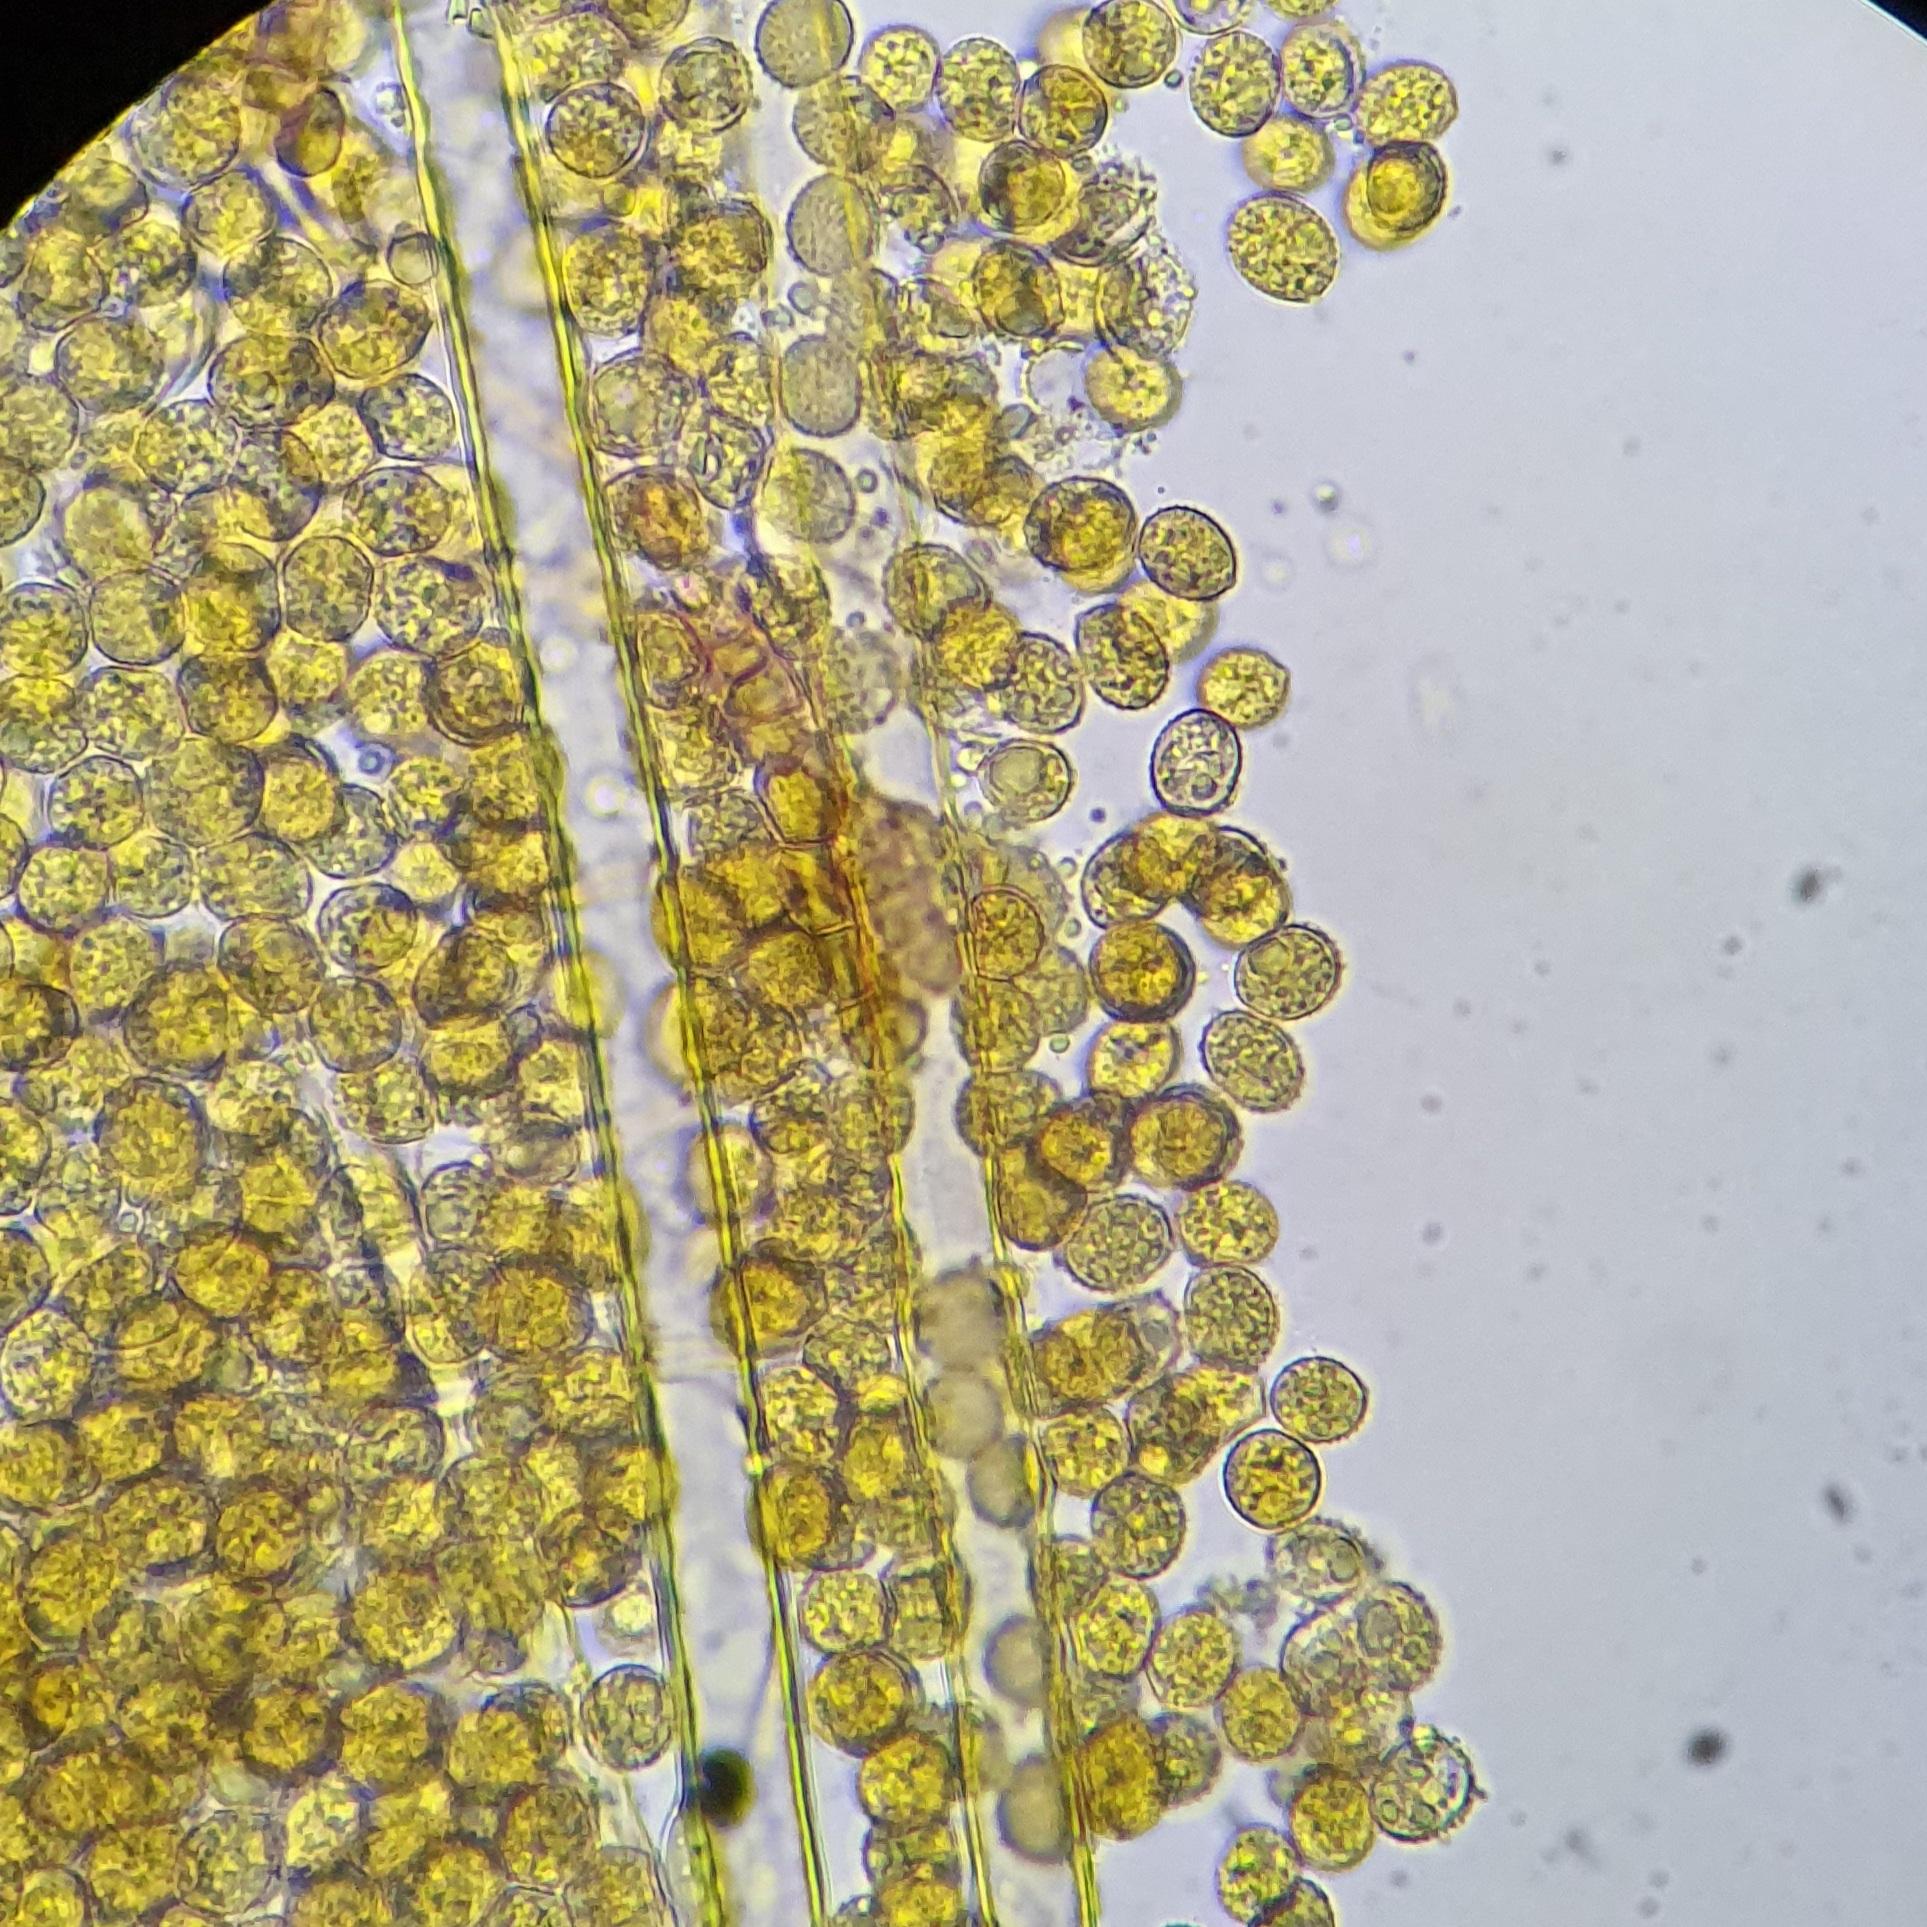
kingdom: Fungi
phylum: Basidiomycota
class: Agaricomycetes
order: Agaricales
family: Crepidotaceae
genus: Crepidotus
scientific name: Crepidotus cesatii
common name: almindelig muslingesvamp
